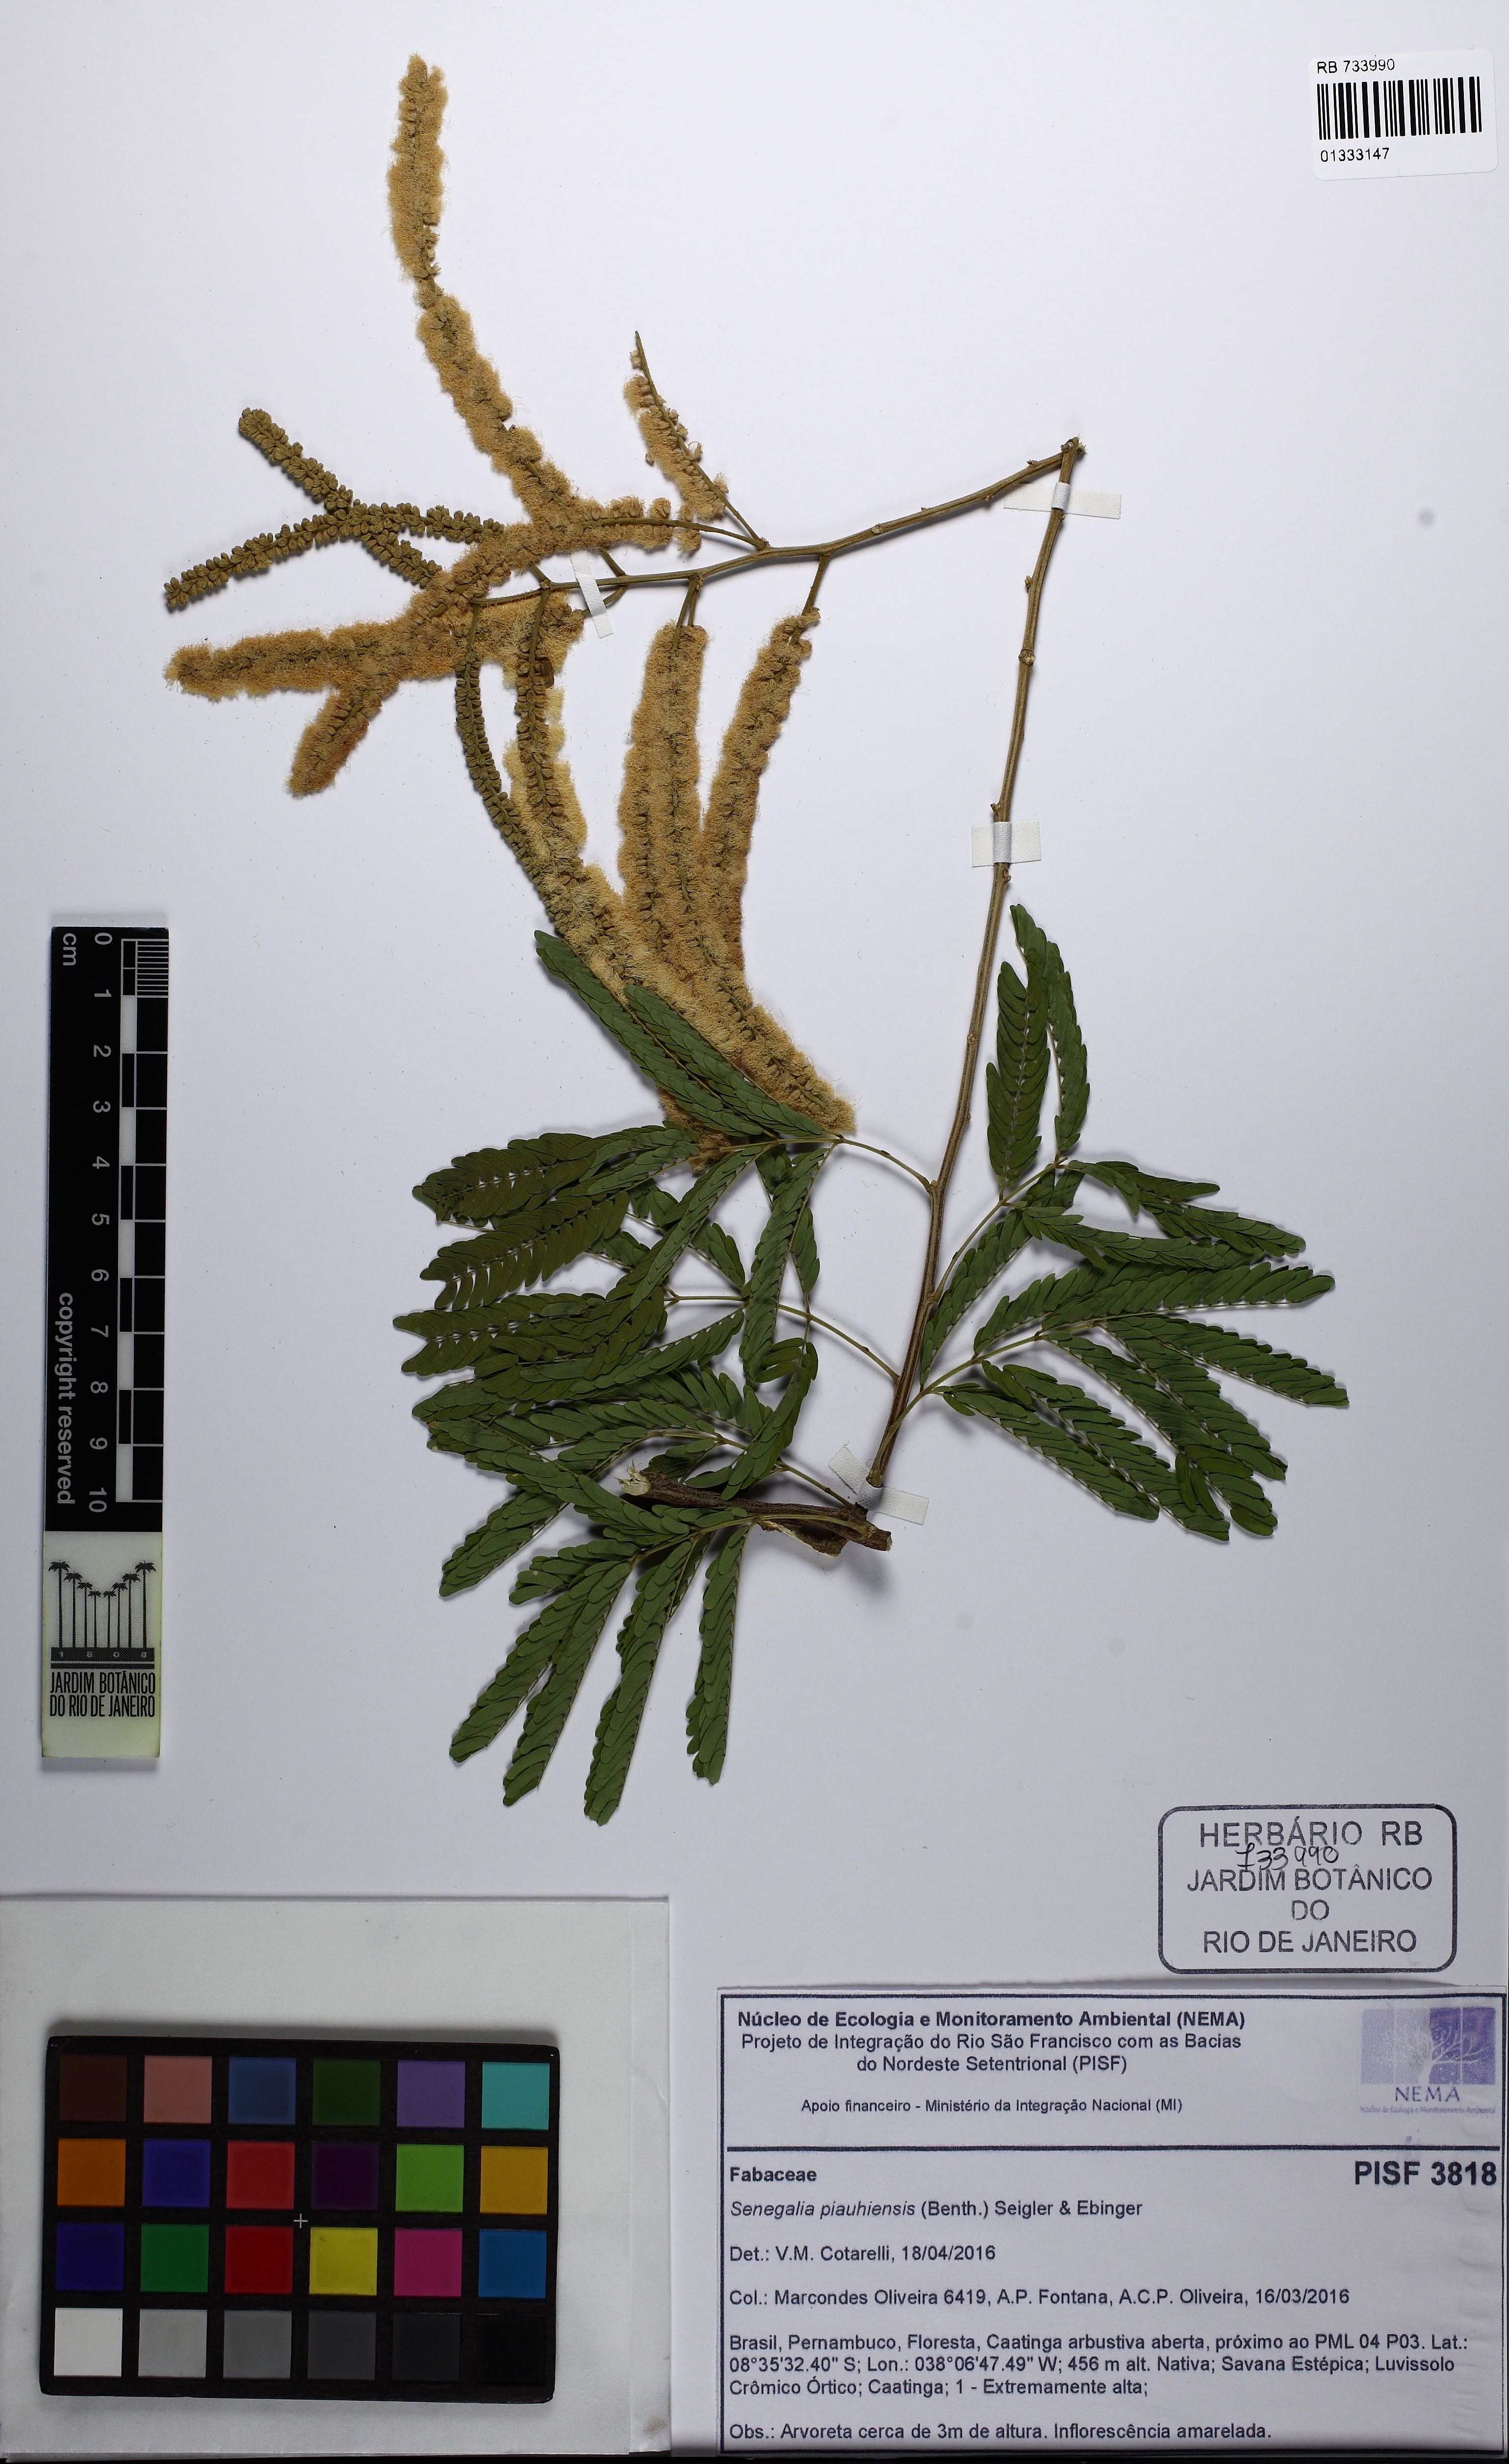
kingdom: Plantae
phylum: Tracheophyta
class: Magnoliopsida
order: Fabales
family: Fabaceae
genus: Senegalia
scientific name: Senegalia piauhiensis
